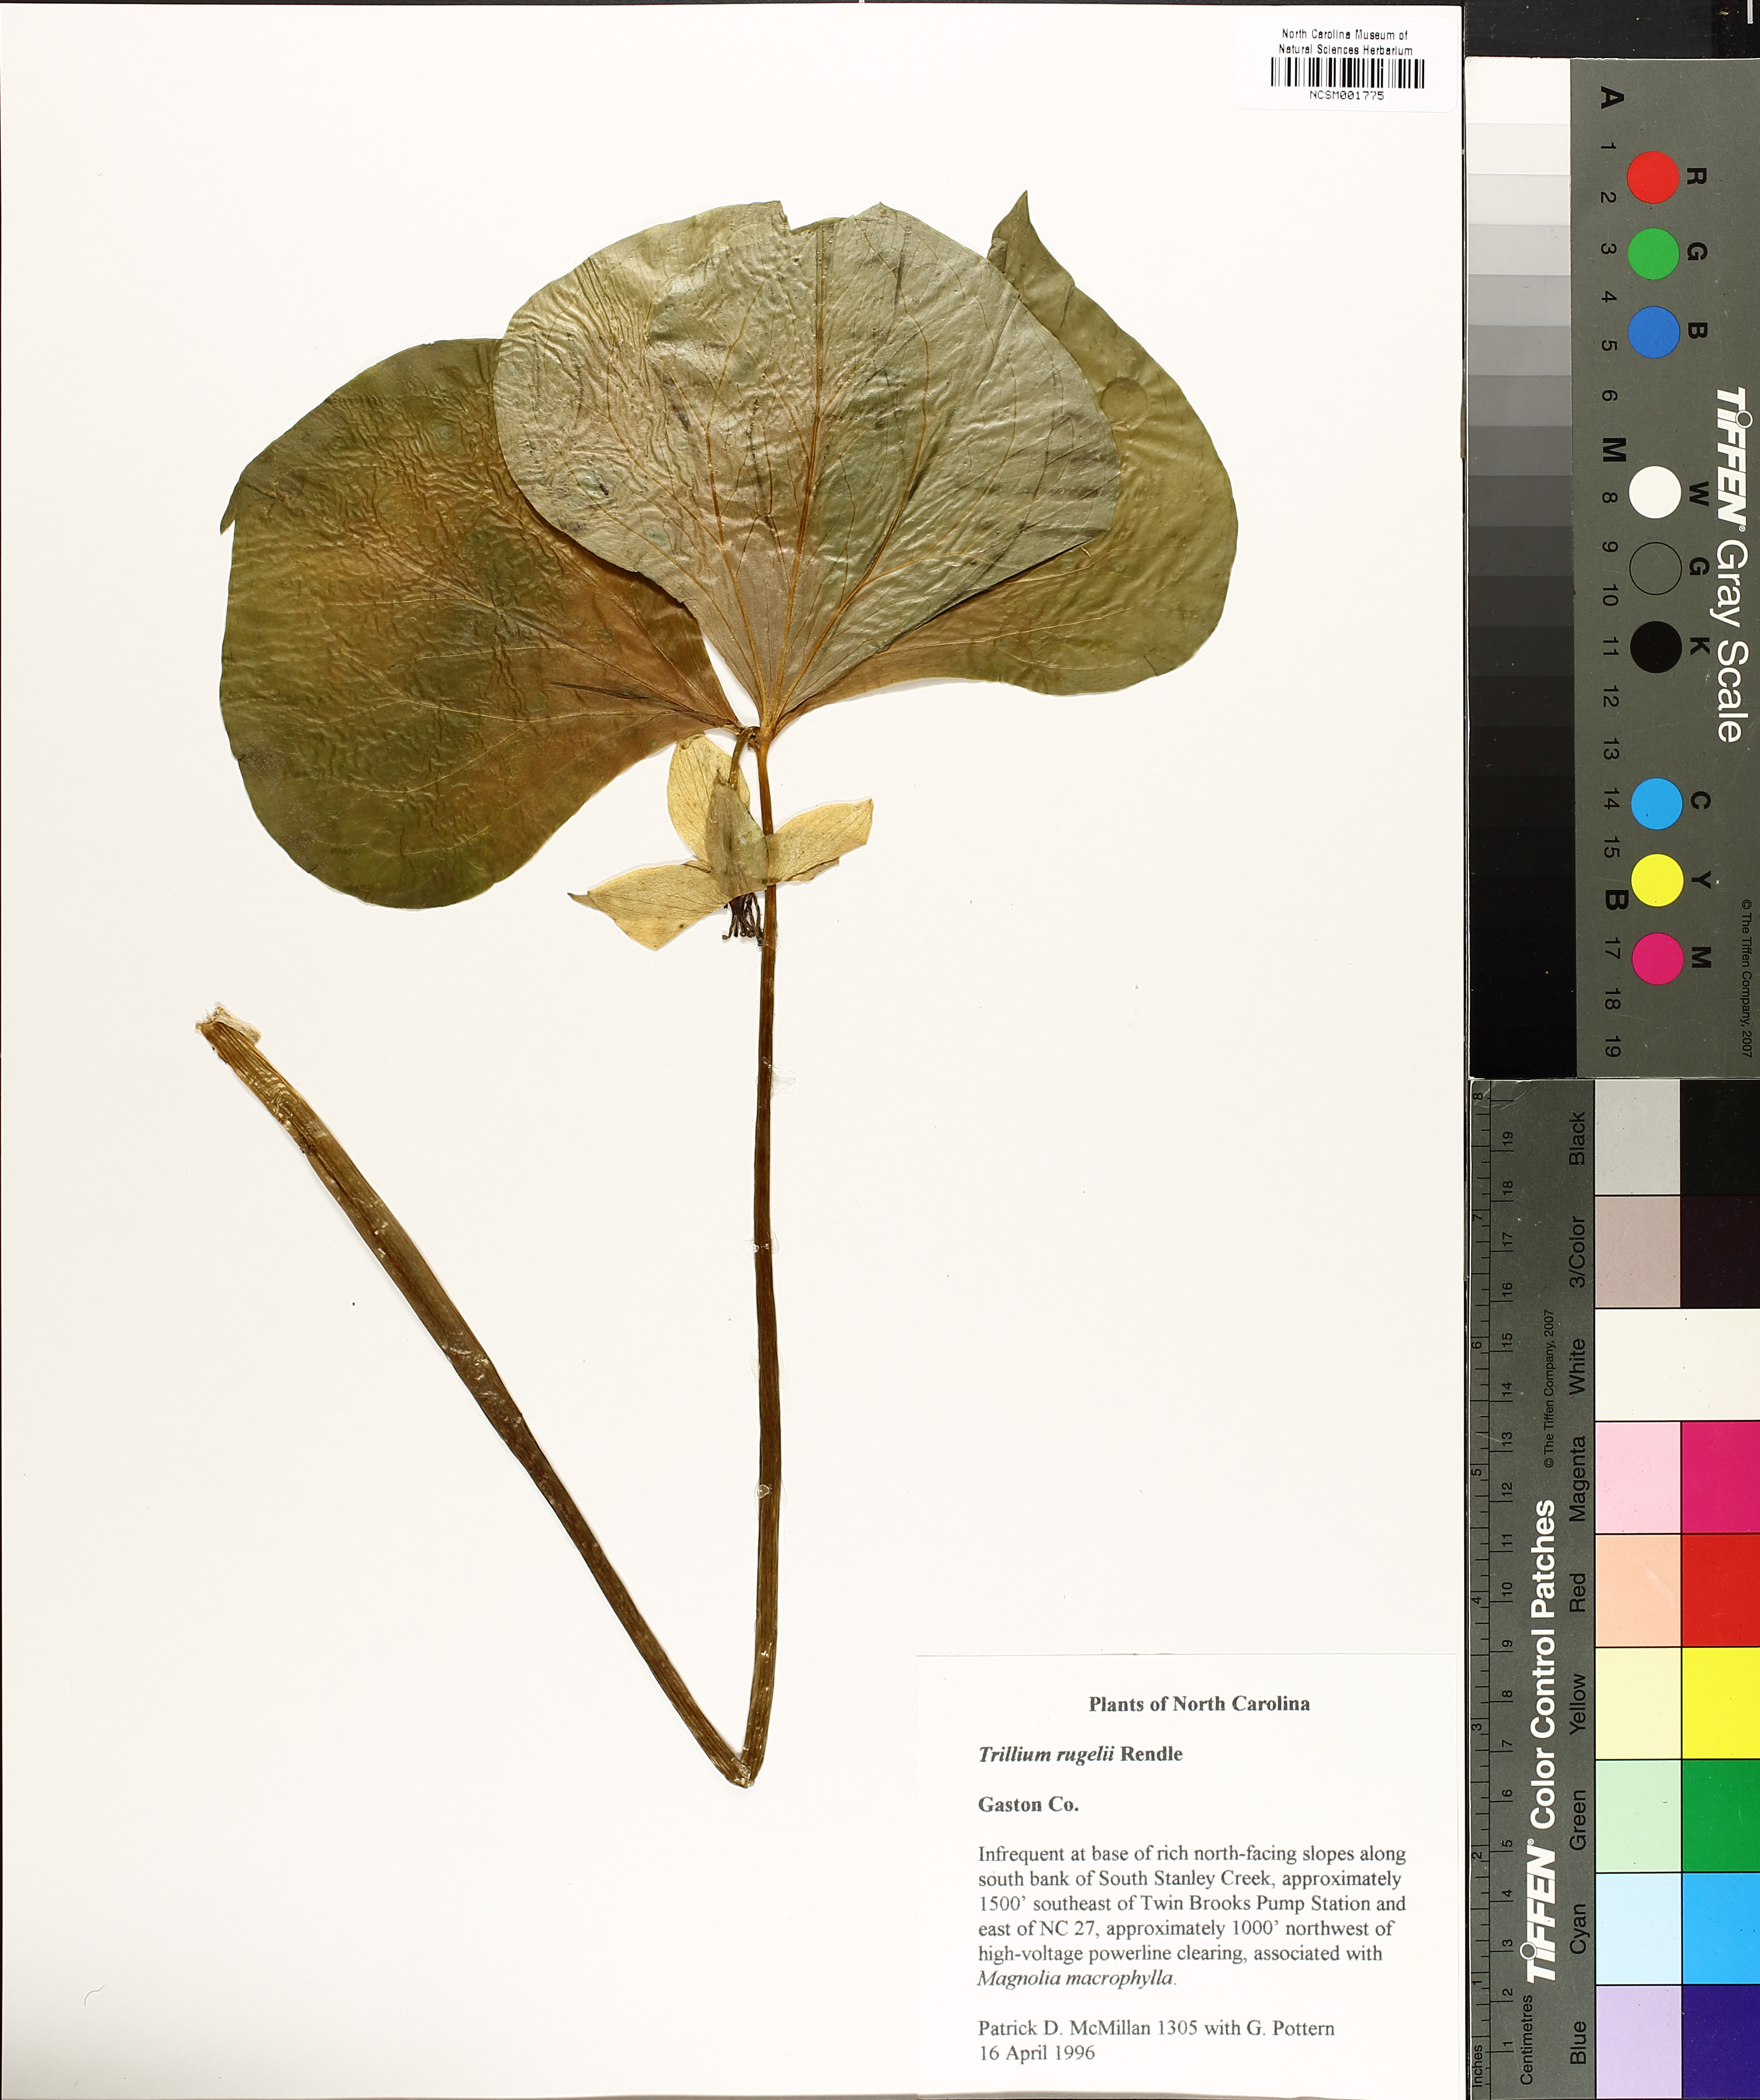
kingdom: Plantae
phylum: Tracheophyta
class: Liliopsida
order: Liliales
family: Melanthiaceae
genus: Trillium
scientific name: Trillium rugelii
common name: Ill-scented trillium
